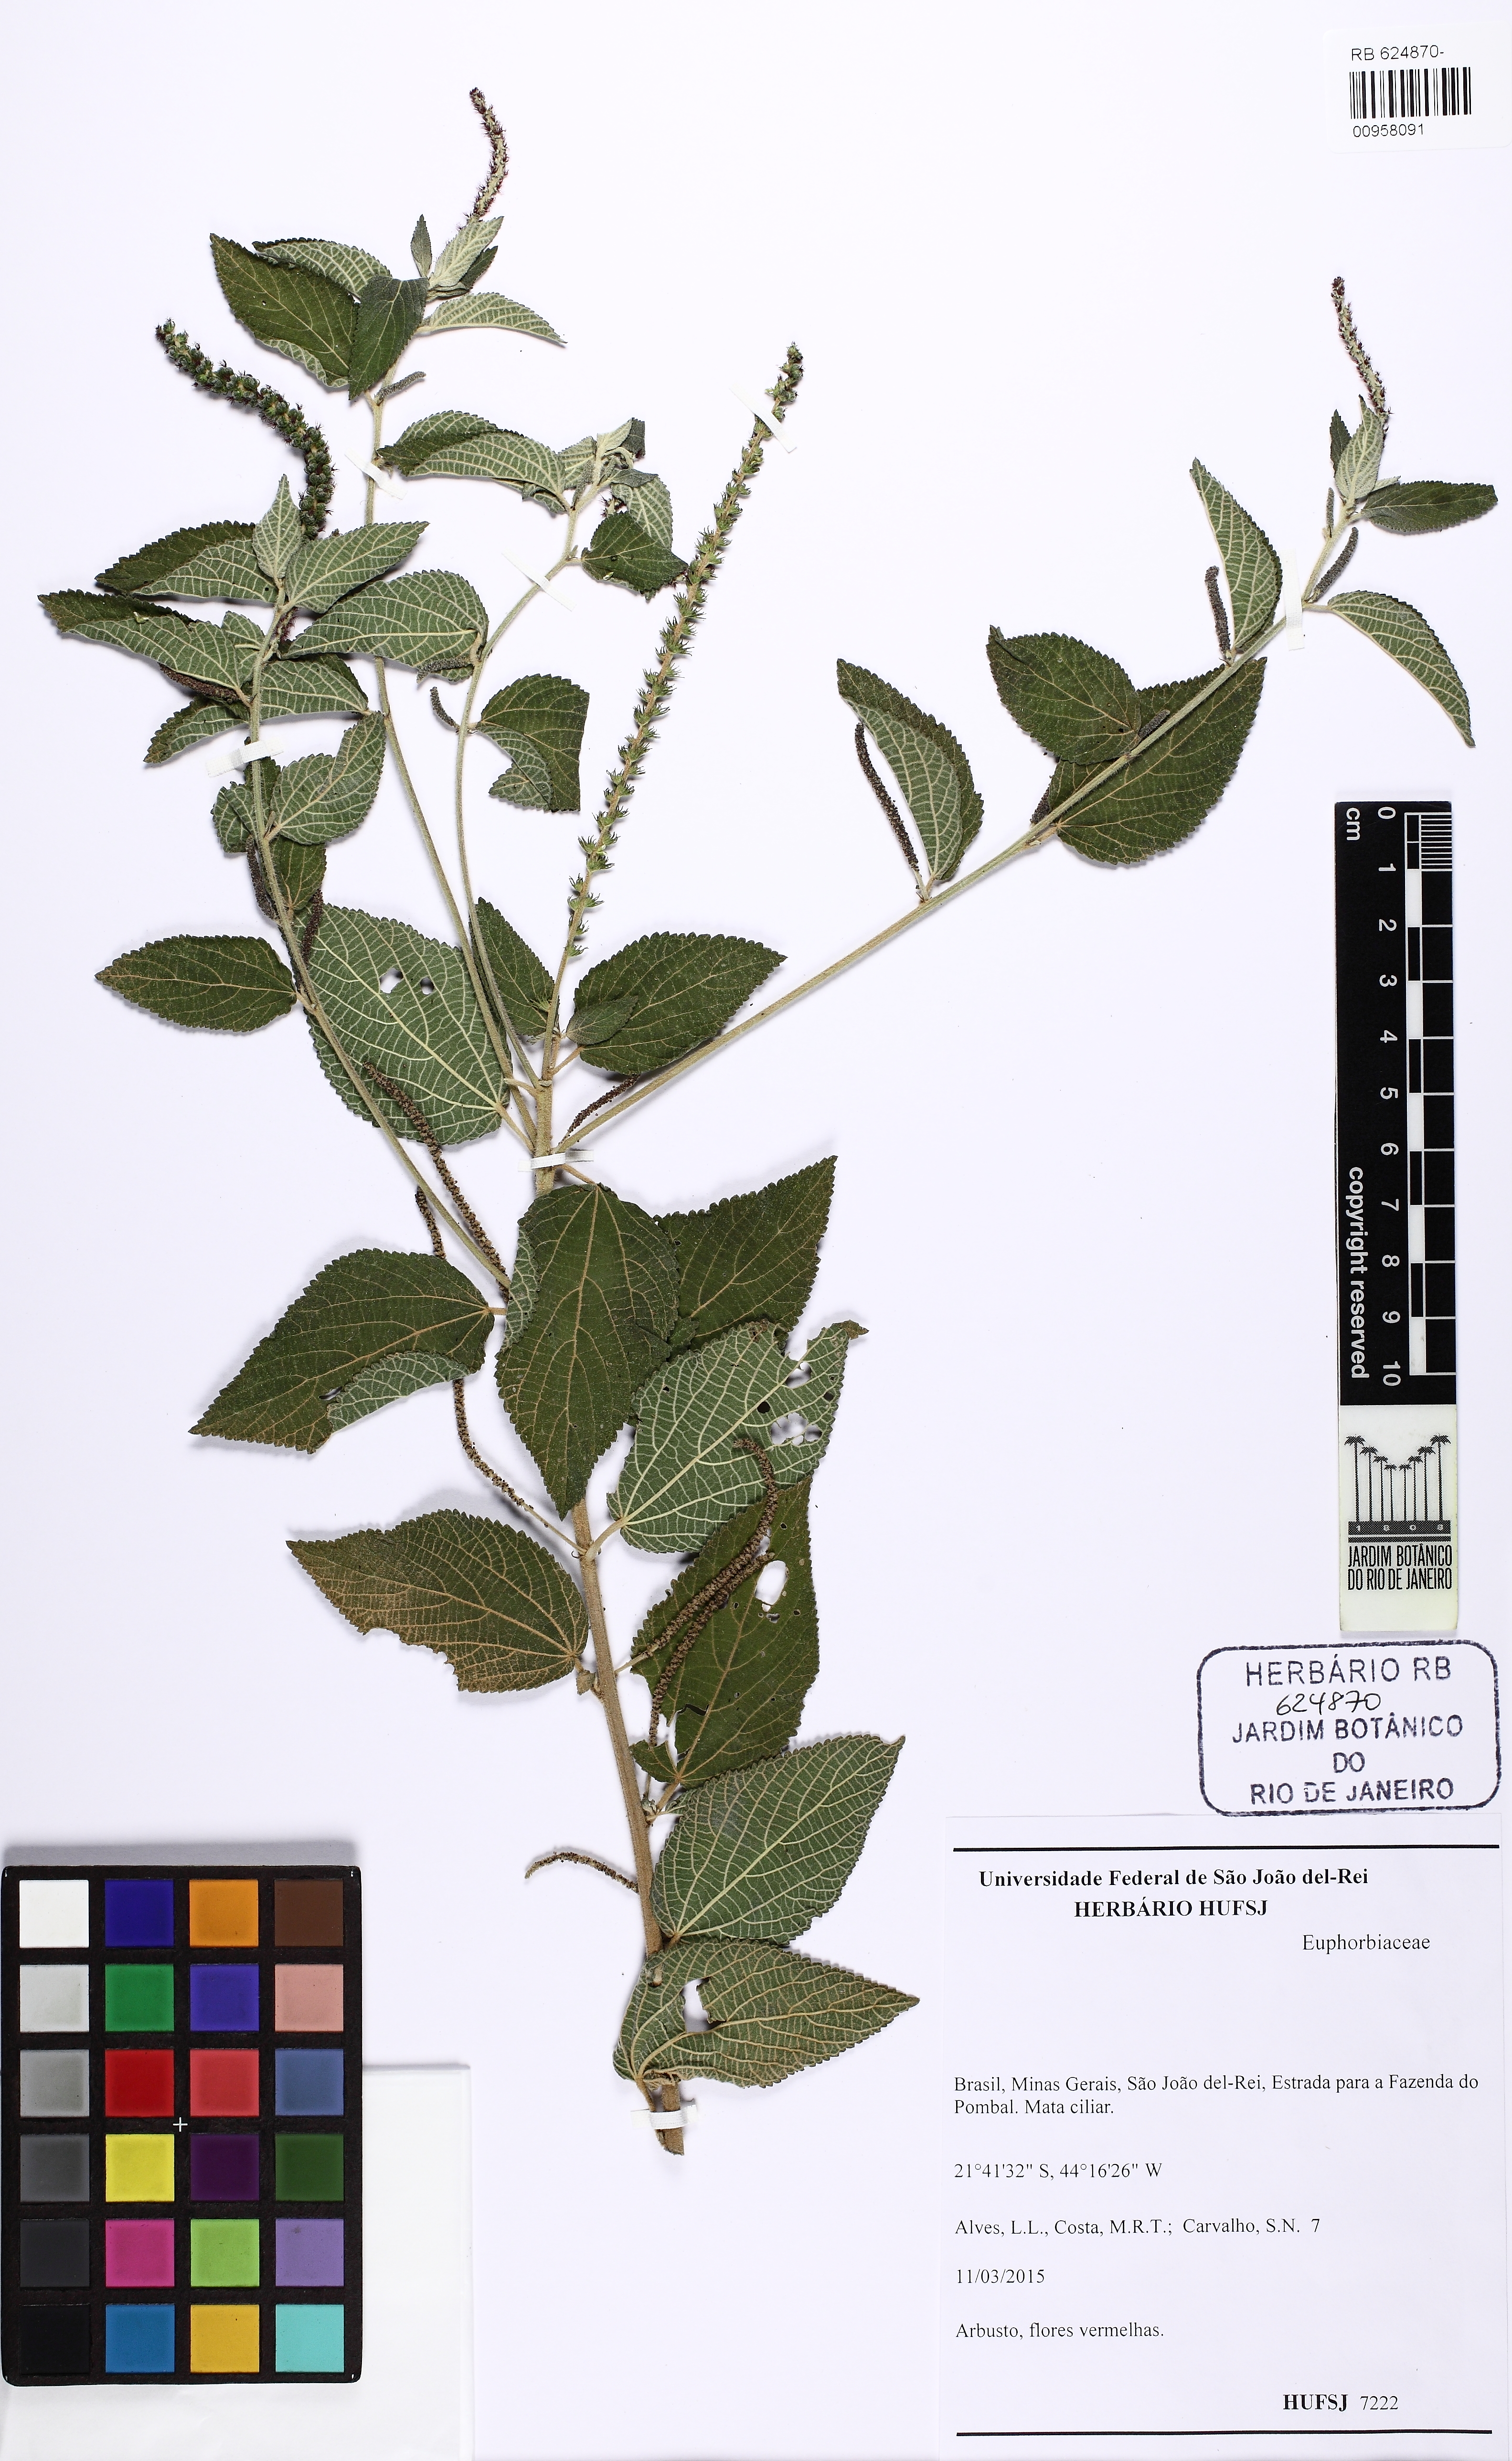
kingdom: Plantae
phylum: Tracheophyta
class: Magnoliopsida
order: Malpighiales
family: Euphorbiaceae
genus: Acalypha
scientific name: Acalypha communis
